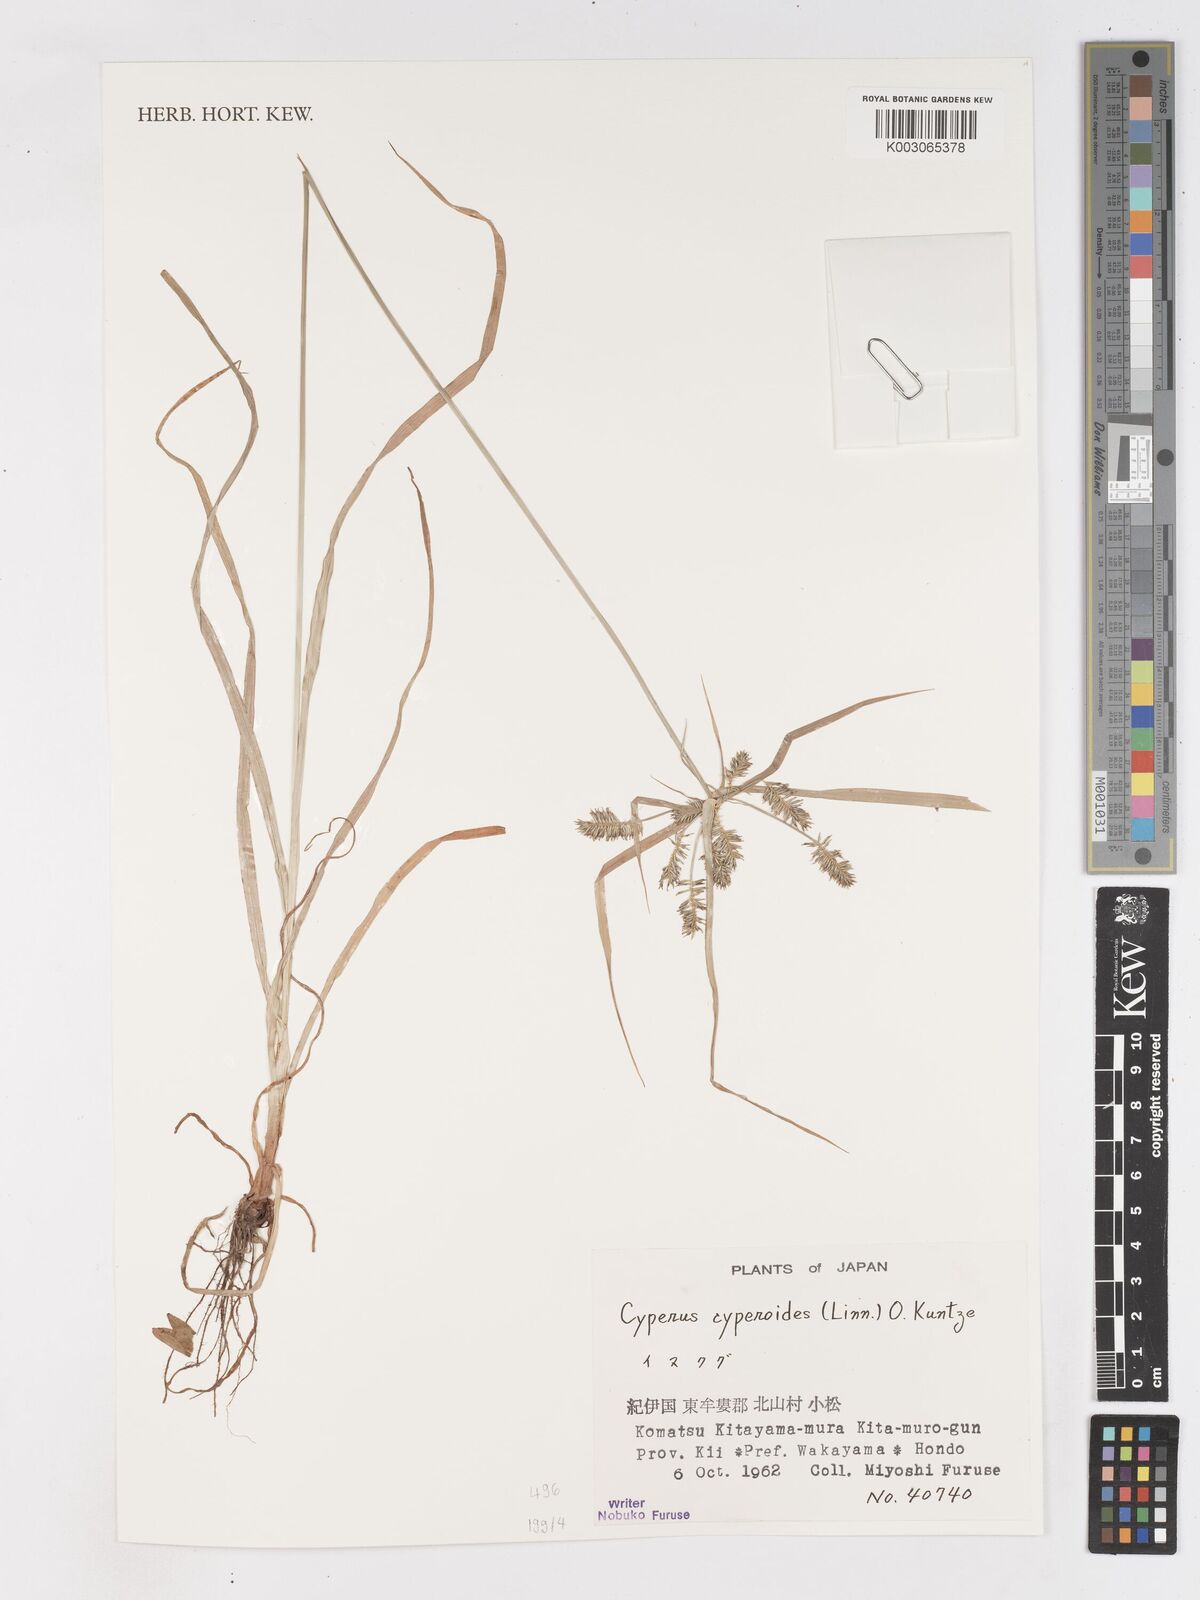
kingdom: Plantae
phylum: Tracheophyta
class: Liliopsida
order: Poales
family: Cyperaceae
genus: Cyperus
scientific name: Cyperus cyperoides
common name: Pacific island flat sedge
